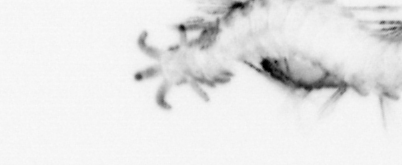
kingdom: Animalia
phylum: Annelida
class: Polychaeta
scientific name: Polychaeta
